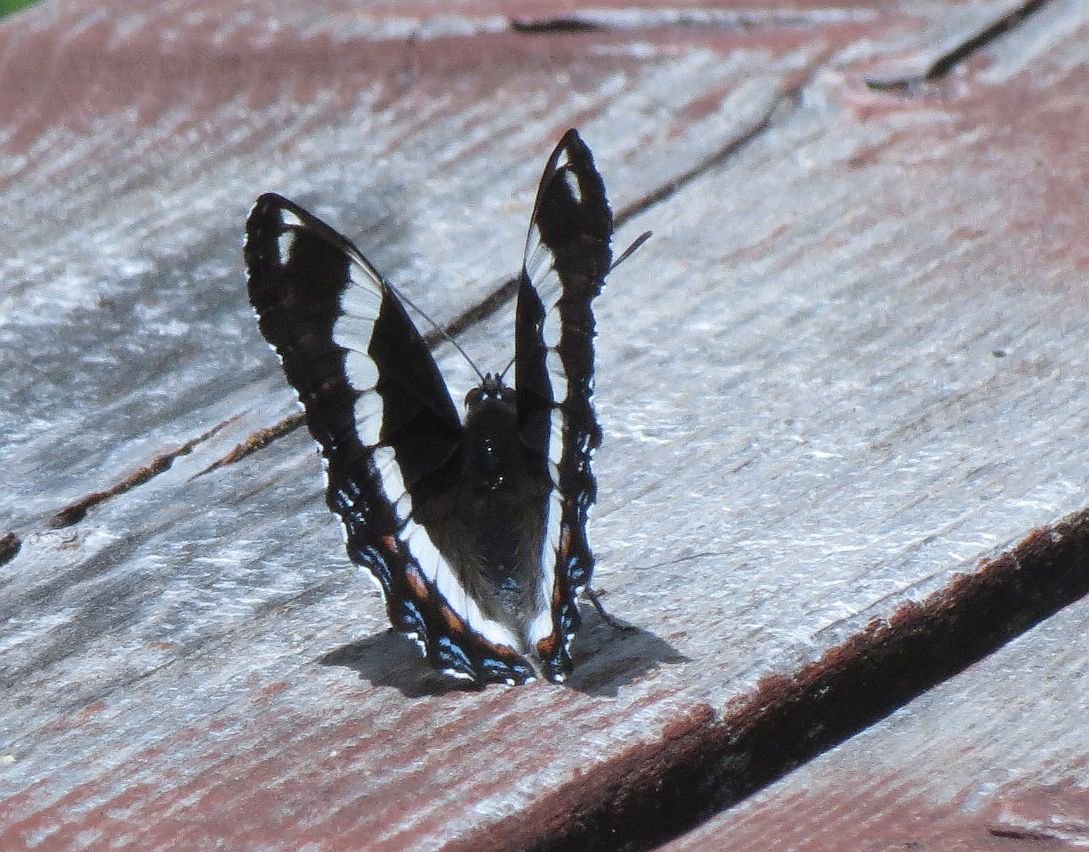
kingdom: Animalia
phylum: Arthropoda
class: Insecta
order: Lepidoptera
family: Nymphalidae
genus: Limenitis
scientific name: Limenitis arthemis
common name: Red-spotted Admiral
